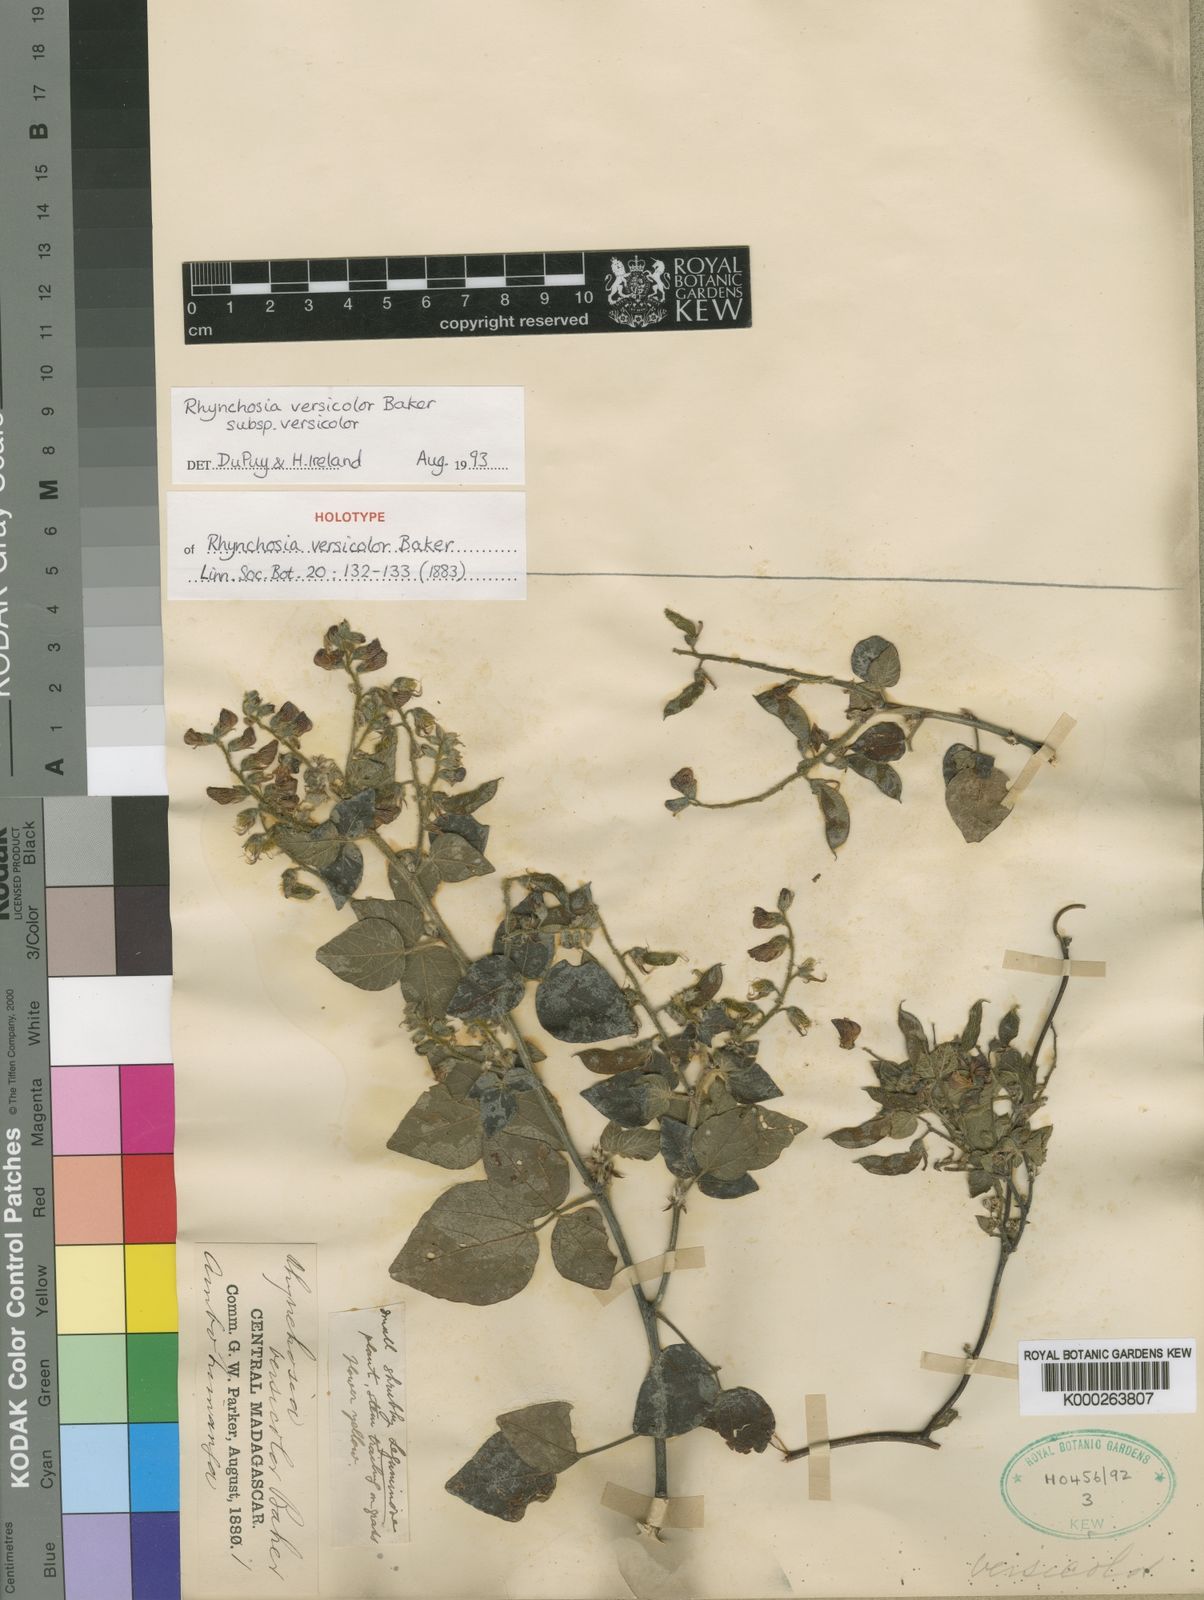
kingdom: Plantae
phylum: Tracheophyta
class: Magnoliopsida
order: Fabales
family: Fabaceae
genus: Rhynchosia
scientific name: Rhynchosia versicolor
